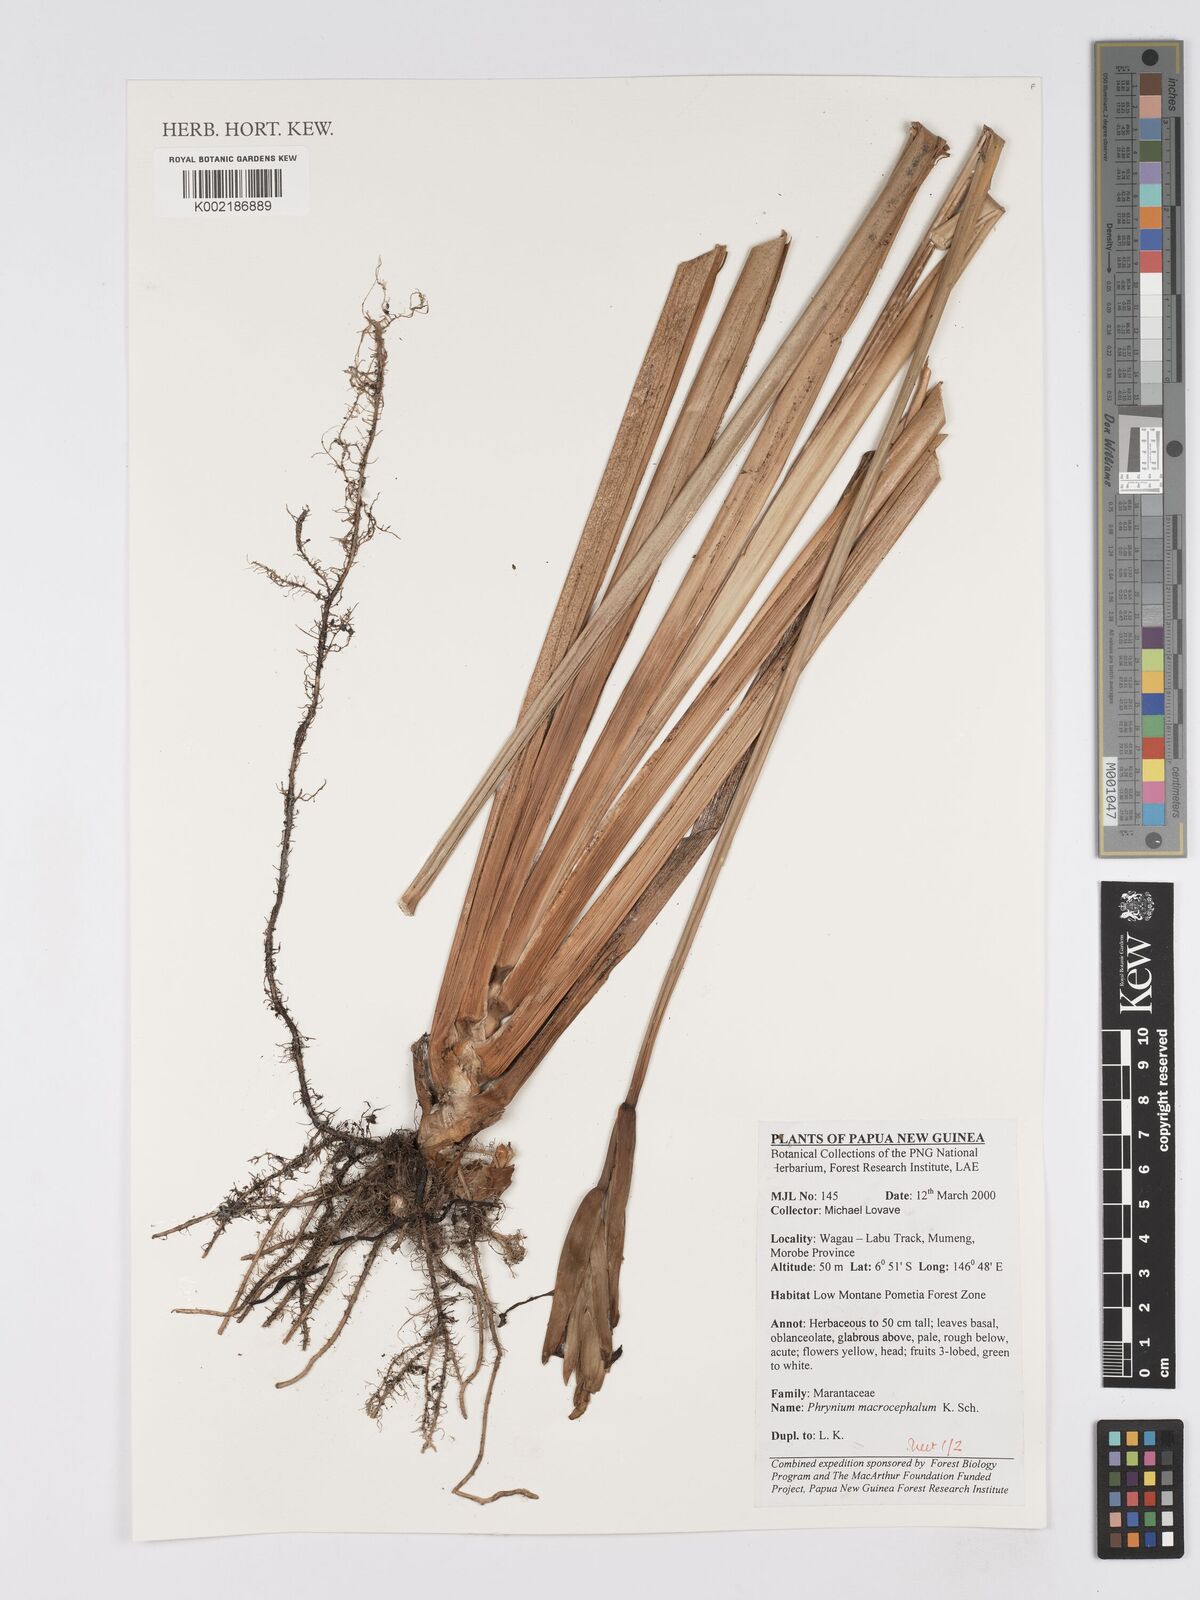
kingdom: Plantae
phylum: Tracheophyta
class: Liliopsida
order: Zingiberales
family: Marantaceae
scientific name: Marantaceae
